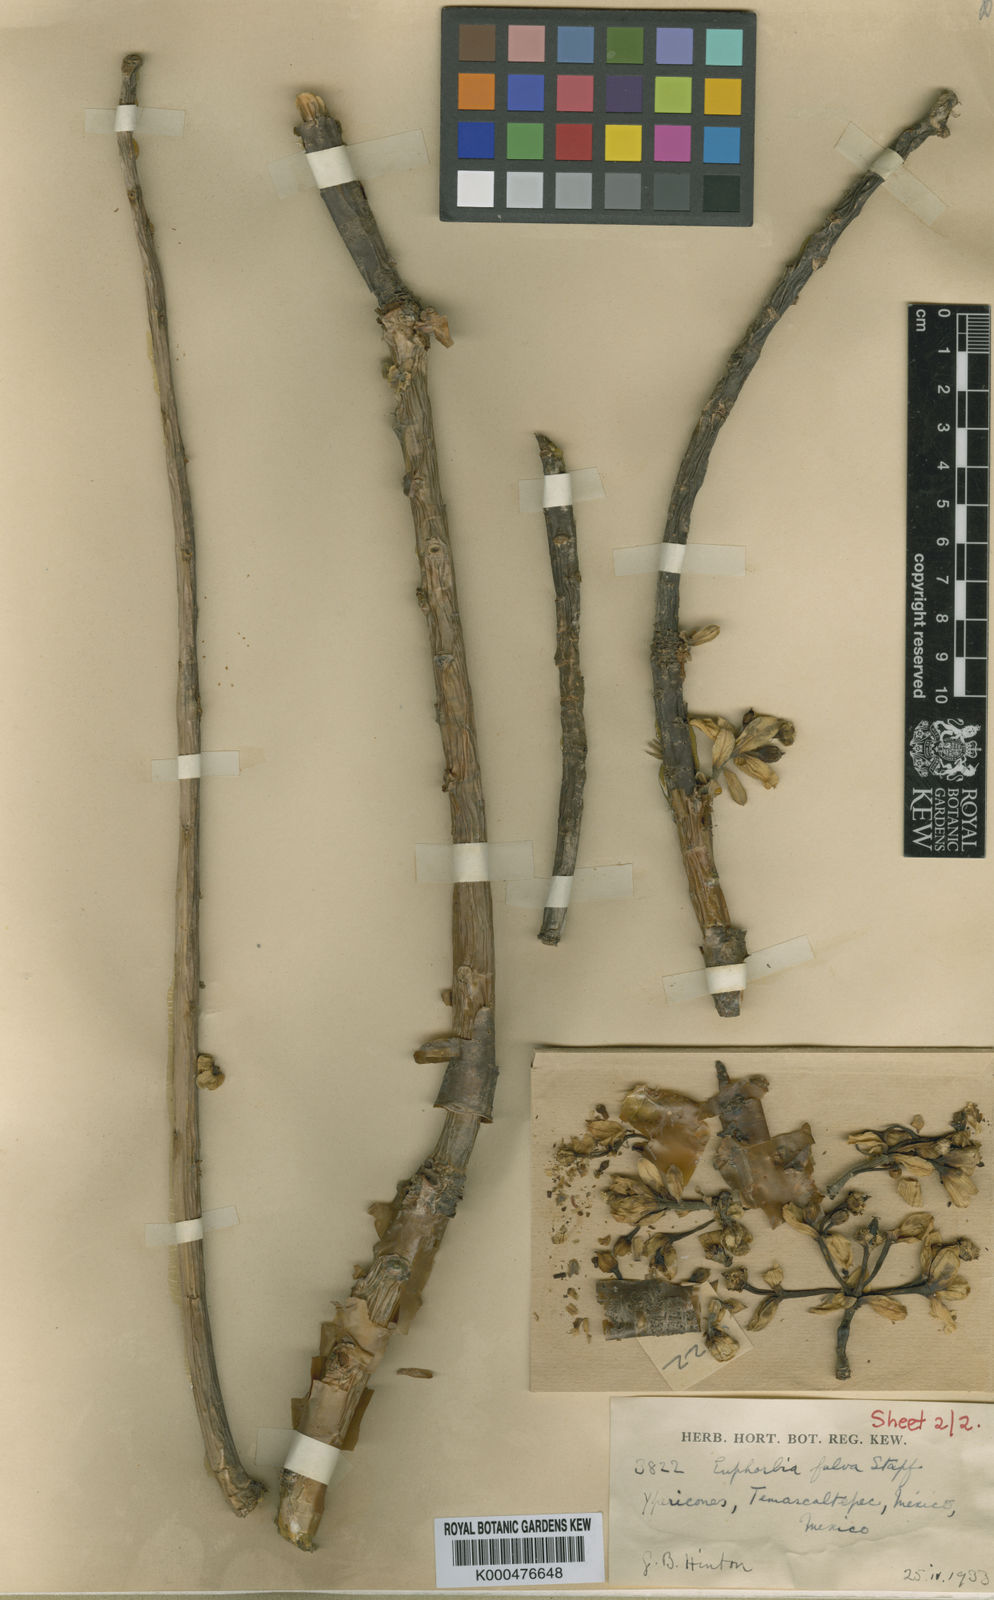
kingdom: Plantae
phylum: Tracheophyta
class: Magnoliopsida
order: Malpighiales
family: Euphorbiaceae
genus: Euphorbia
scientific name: Euphorbia
